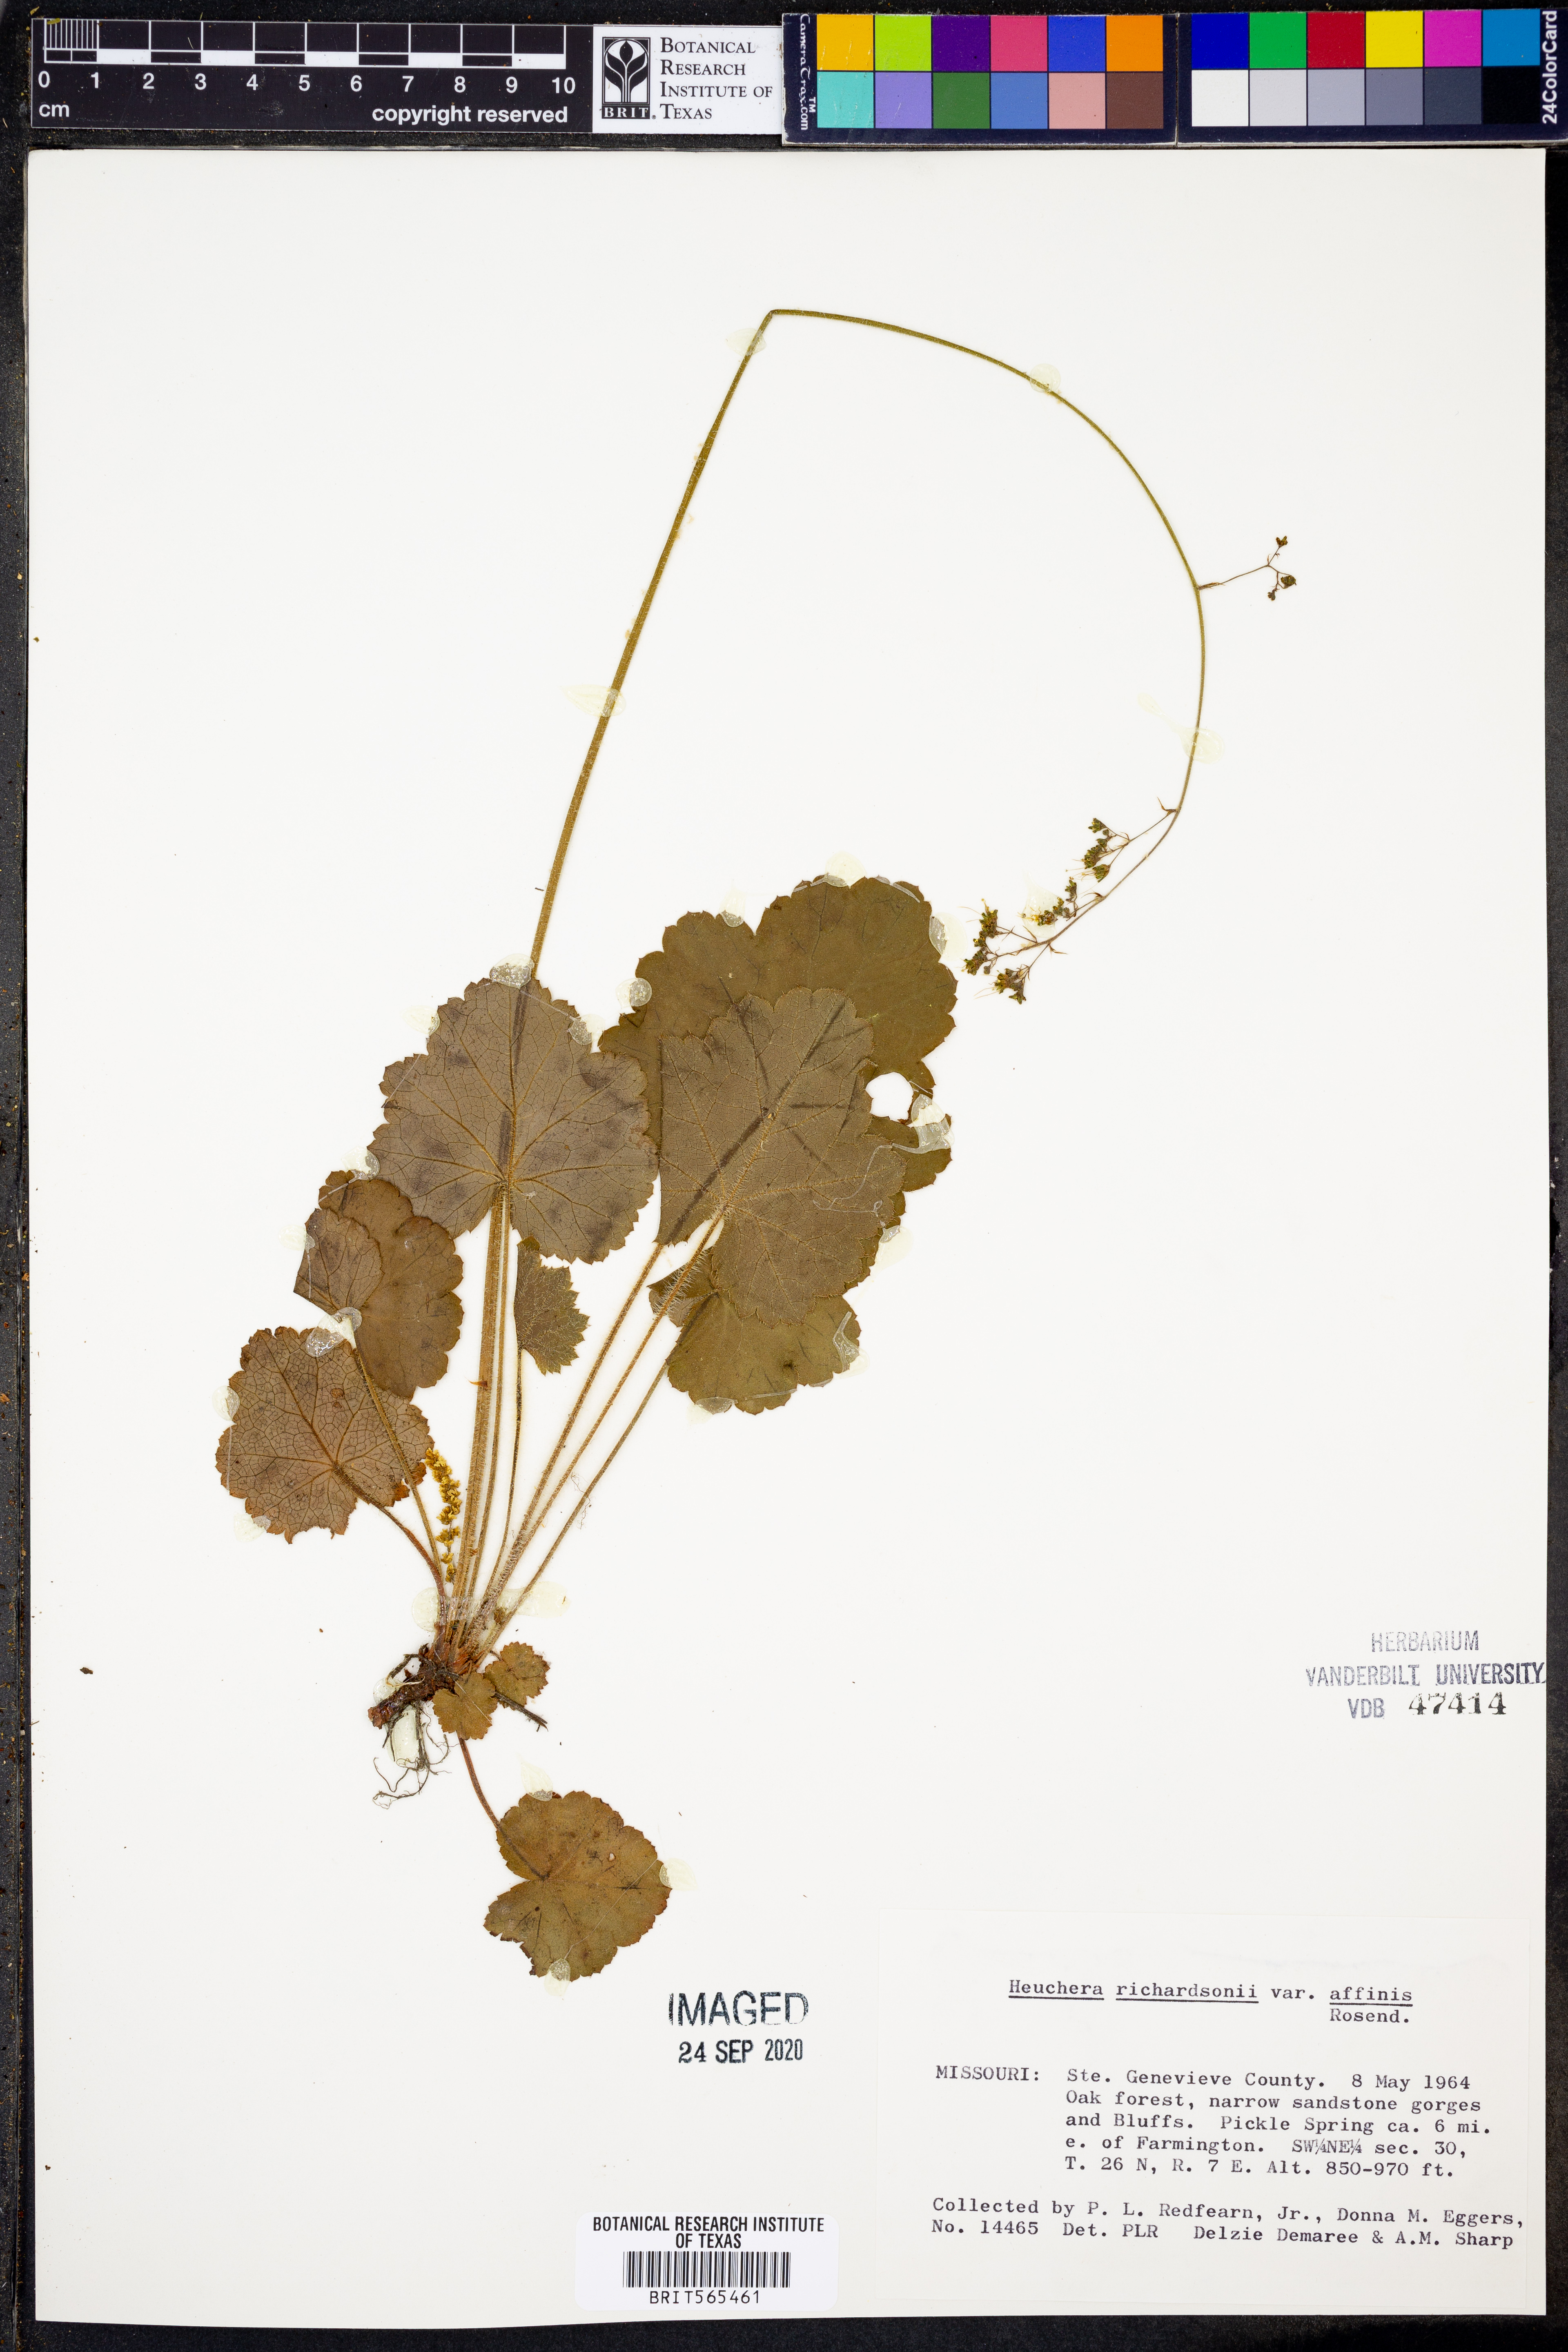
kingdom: Plantae
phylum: Tracheophyta
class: Magnoliopsida
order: Saxifragales
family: Saxifragaceae
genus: Heuchera
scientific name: Heuchera richardsonii
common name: Richardson's alumroot
